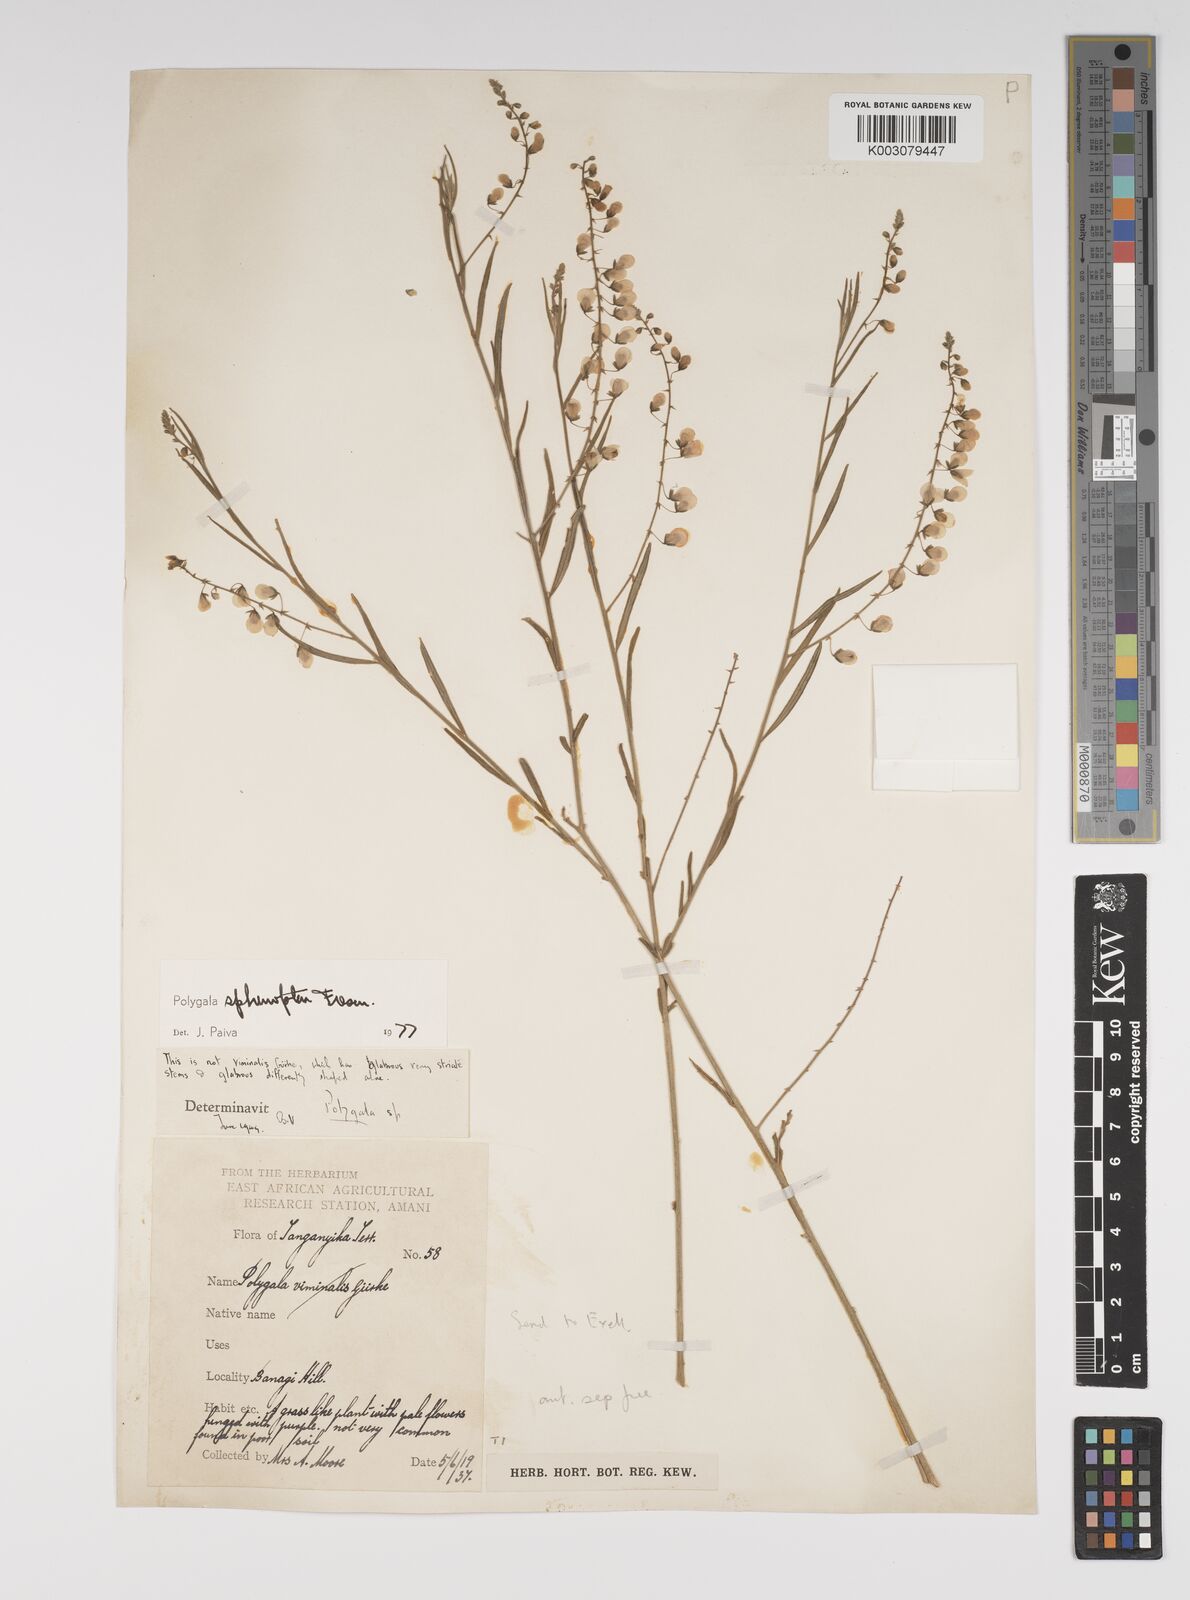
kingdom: Plantae
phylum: Tracheophyta
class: Magnoliopsida
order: Fabales
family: Polygalaceae
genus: Polygala
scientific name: Polygala sphenoptera
